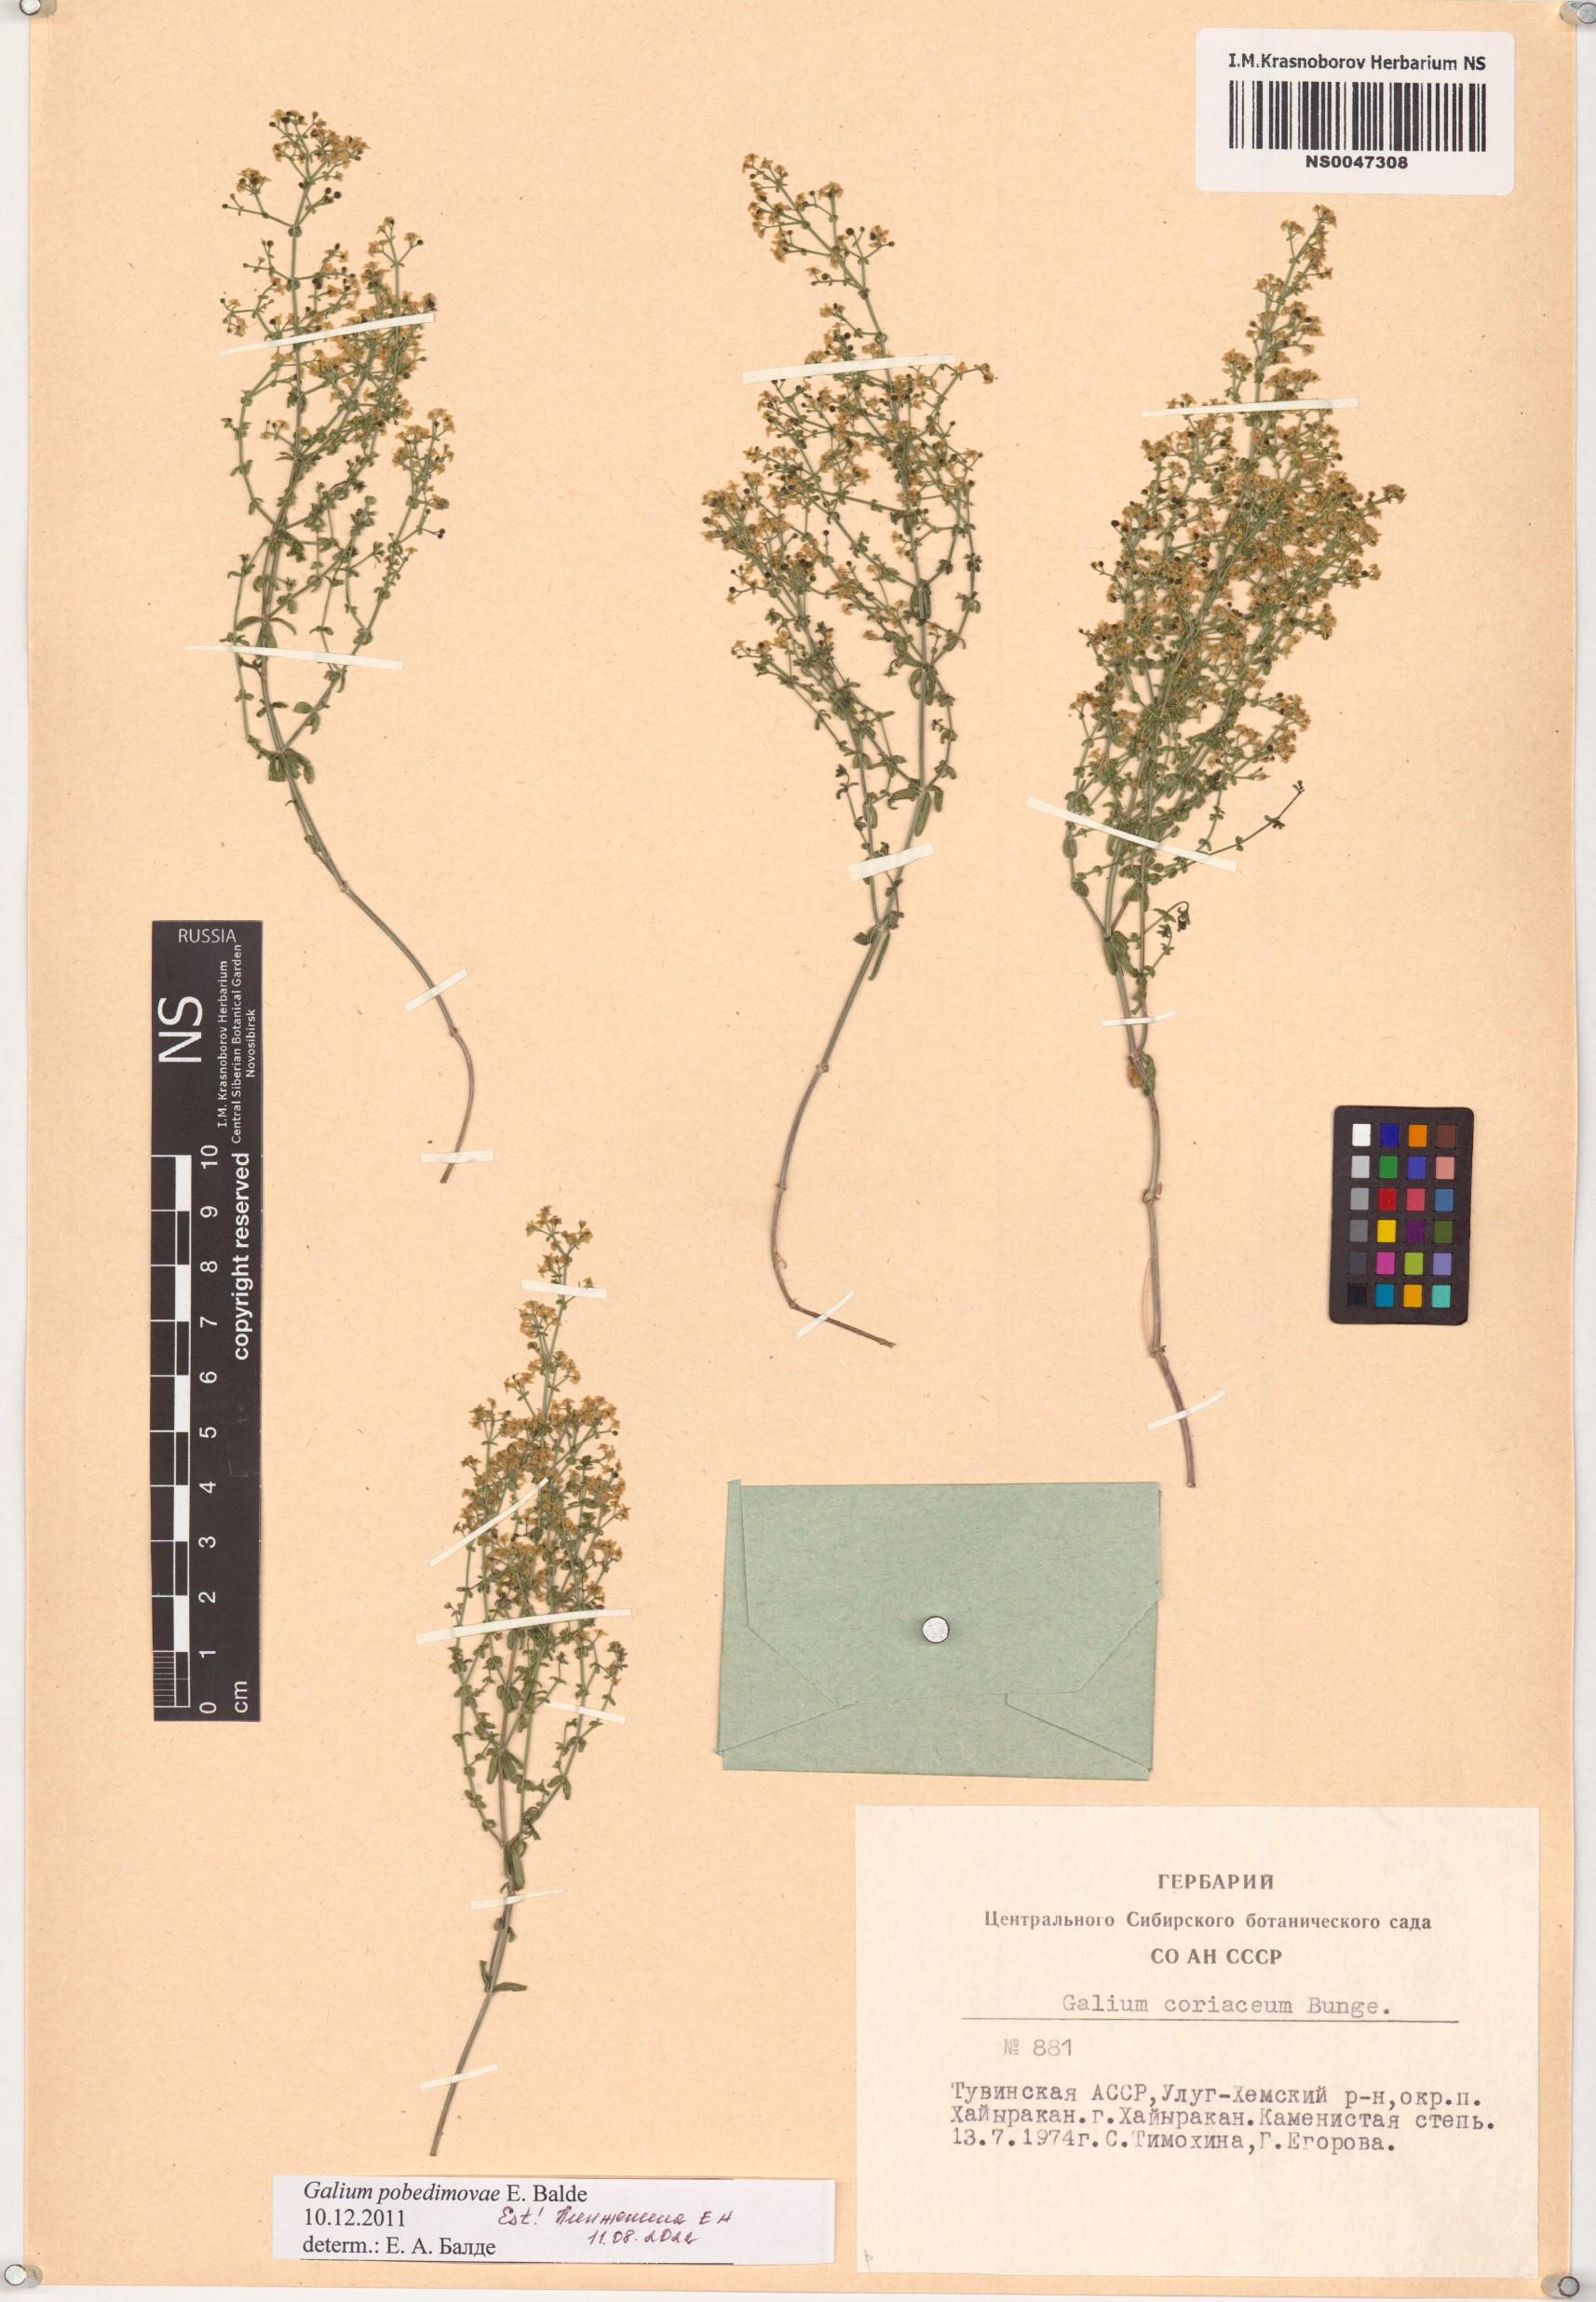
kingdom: Plantae
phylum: Tracheophyta
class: Magnoliopsida
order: Gentianales
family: Rubiaceae
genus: Galium
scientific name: Galium pobedimovae
